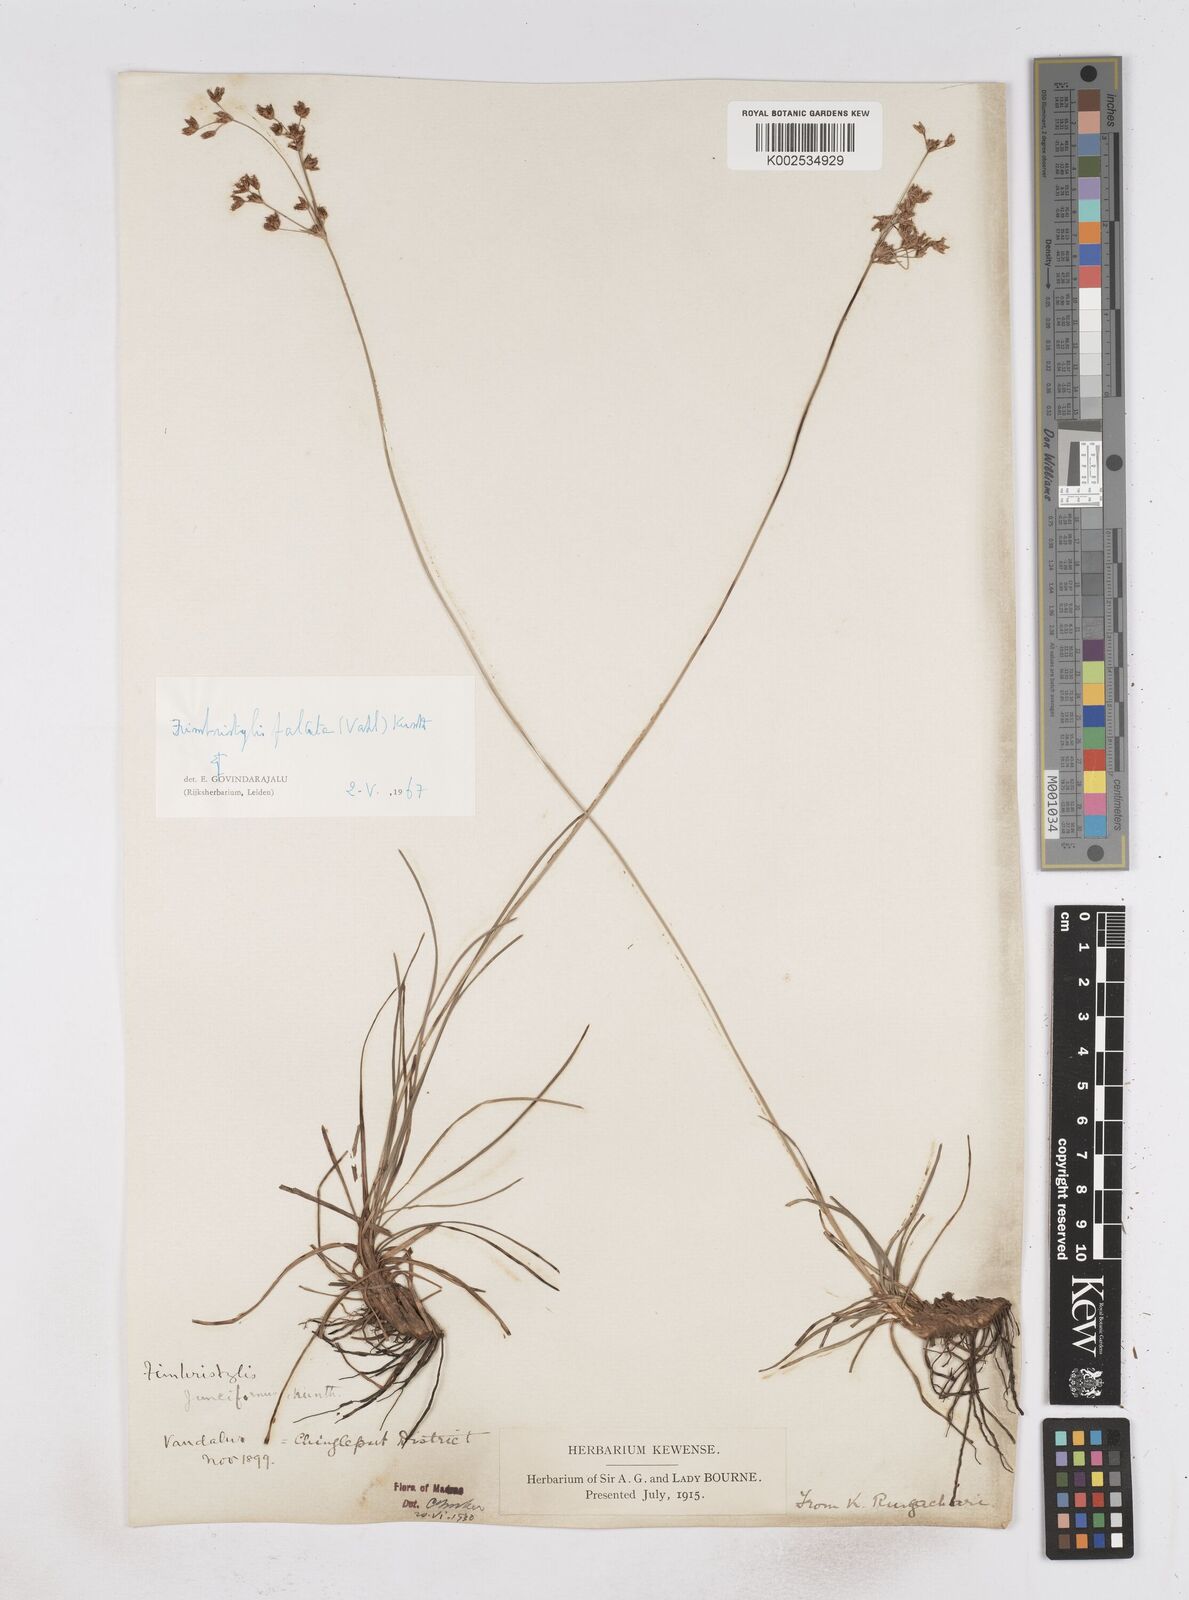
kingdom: Plantae
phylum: Tracheophyta
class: Liliopsida
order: Poales
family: Cyperaceae
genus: Fimbristylis
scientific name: Fimbristylis falcata
